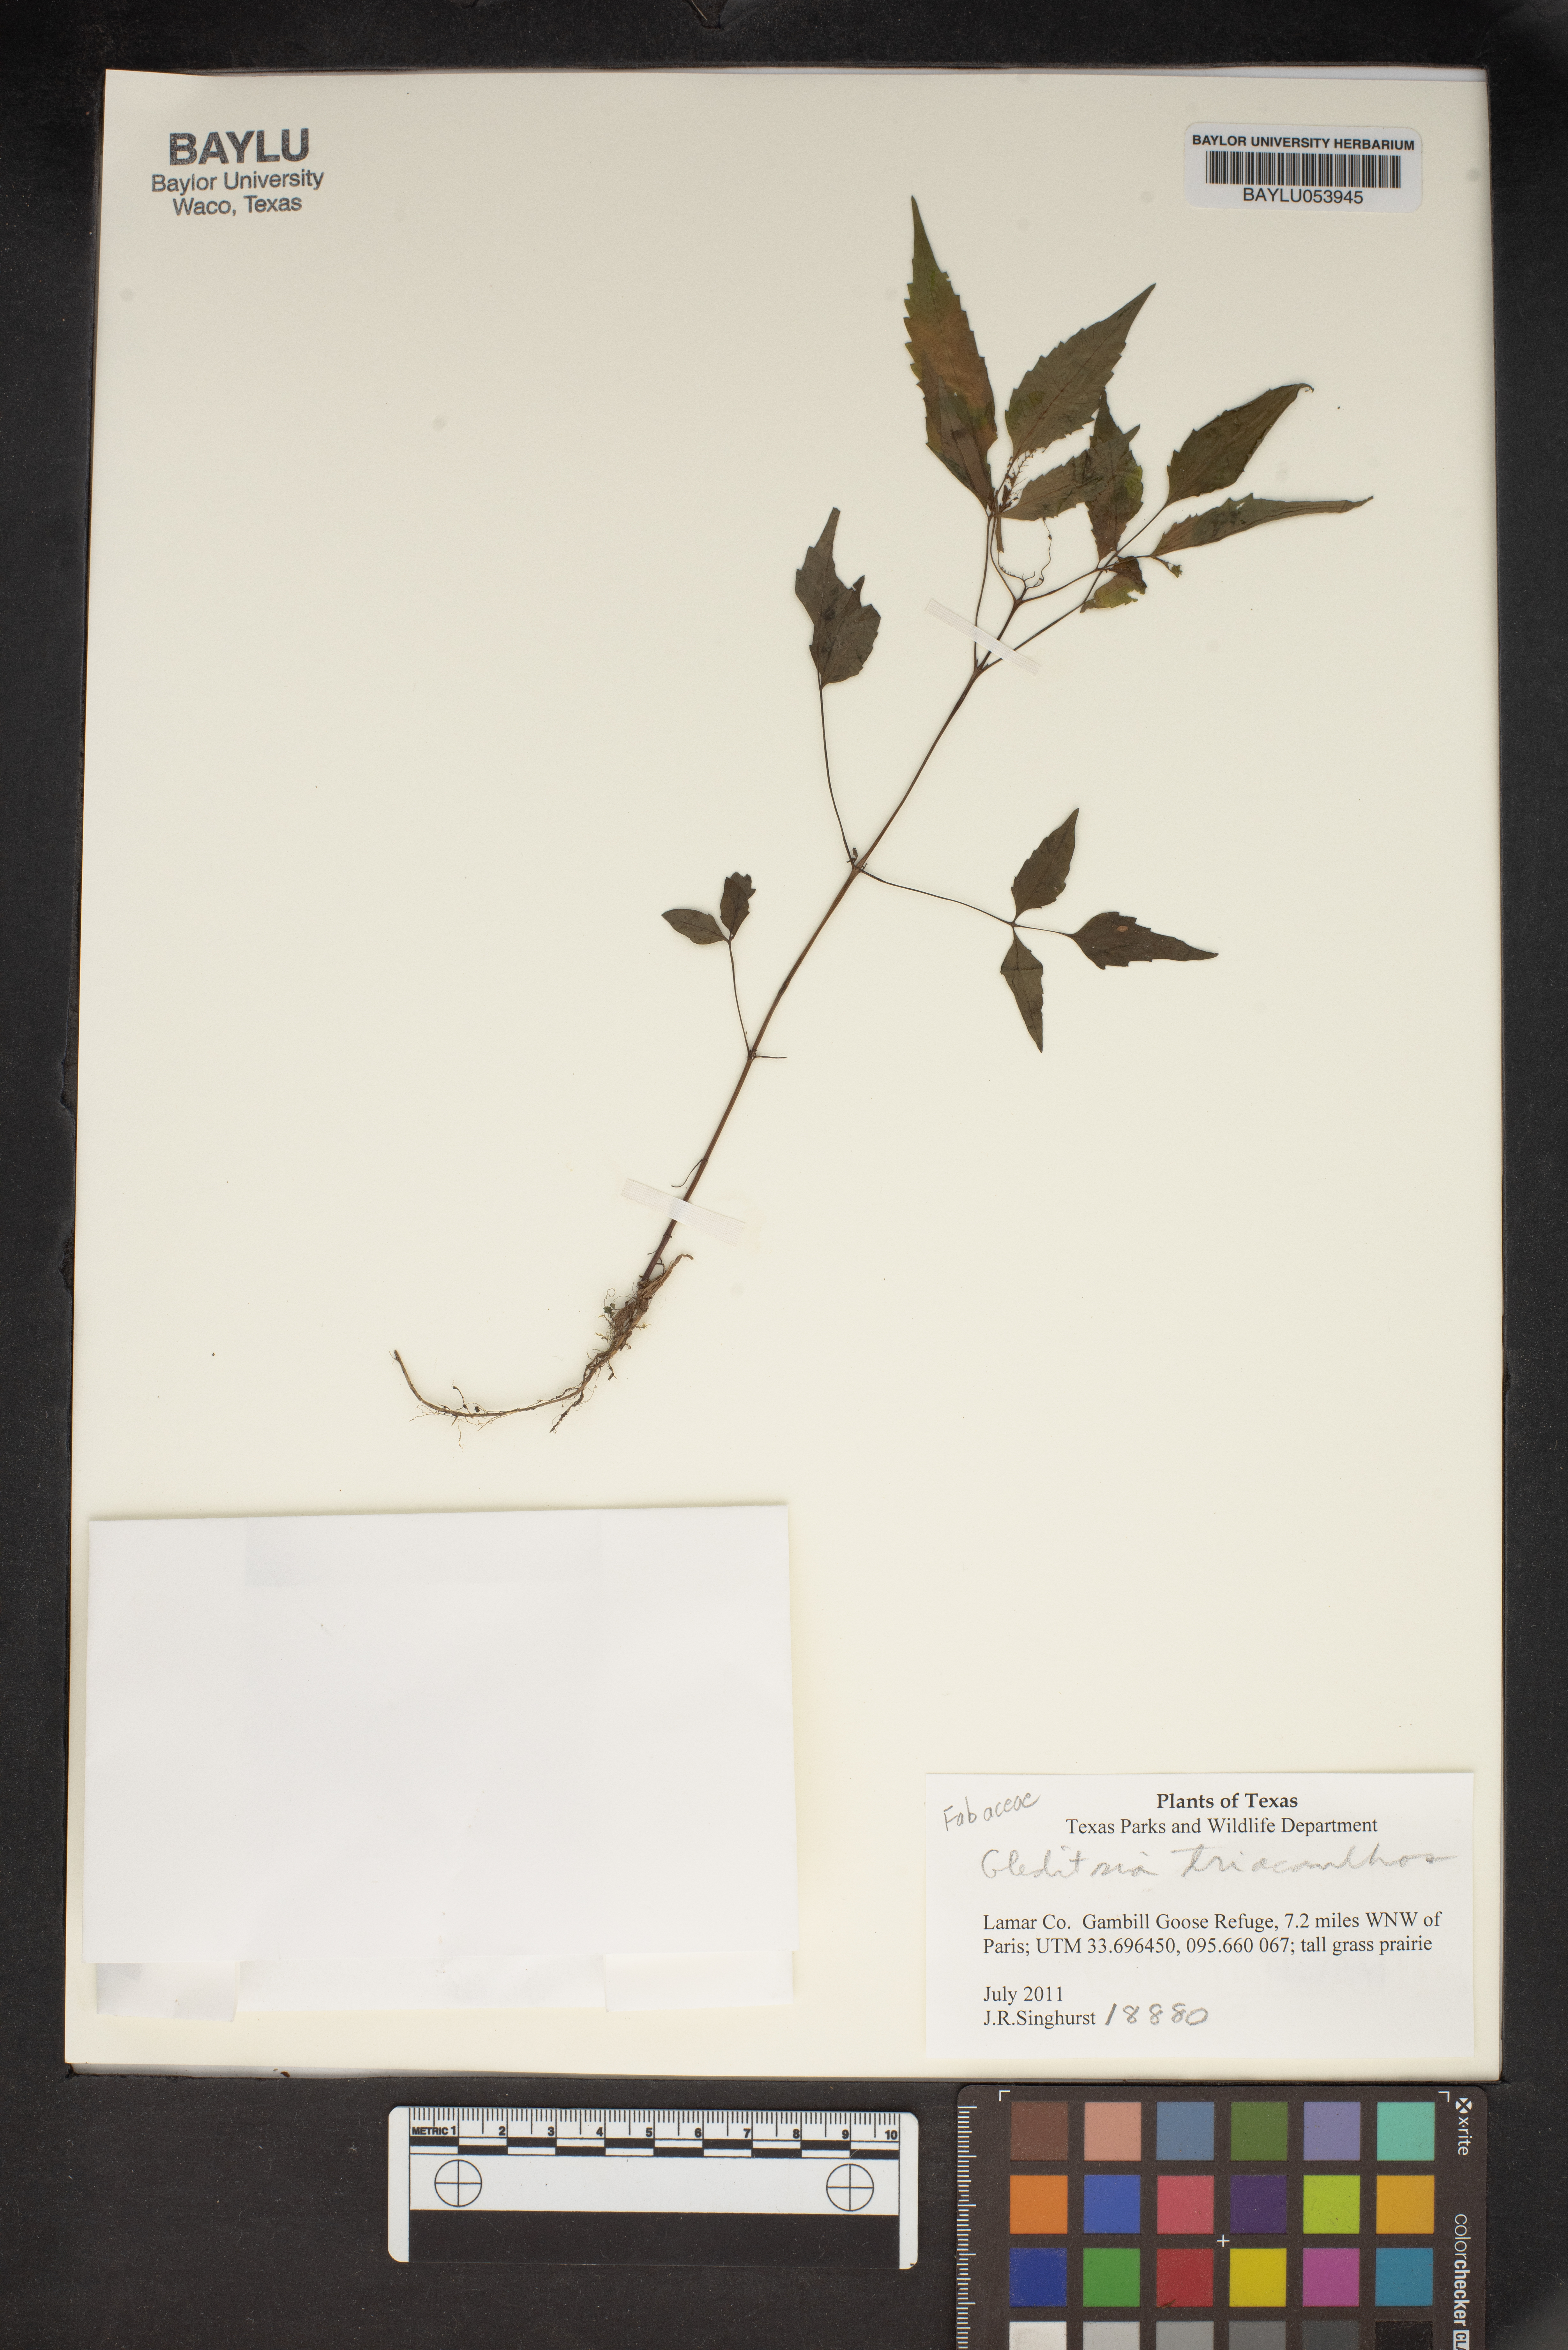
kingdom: Plantae
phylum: Tracheophyta
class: Magnoliopsida
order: Fabales
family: Fabaceae
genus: Gleditsia
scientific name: Gleditsia triacanthos
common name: Common honeylocust
